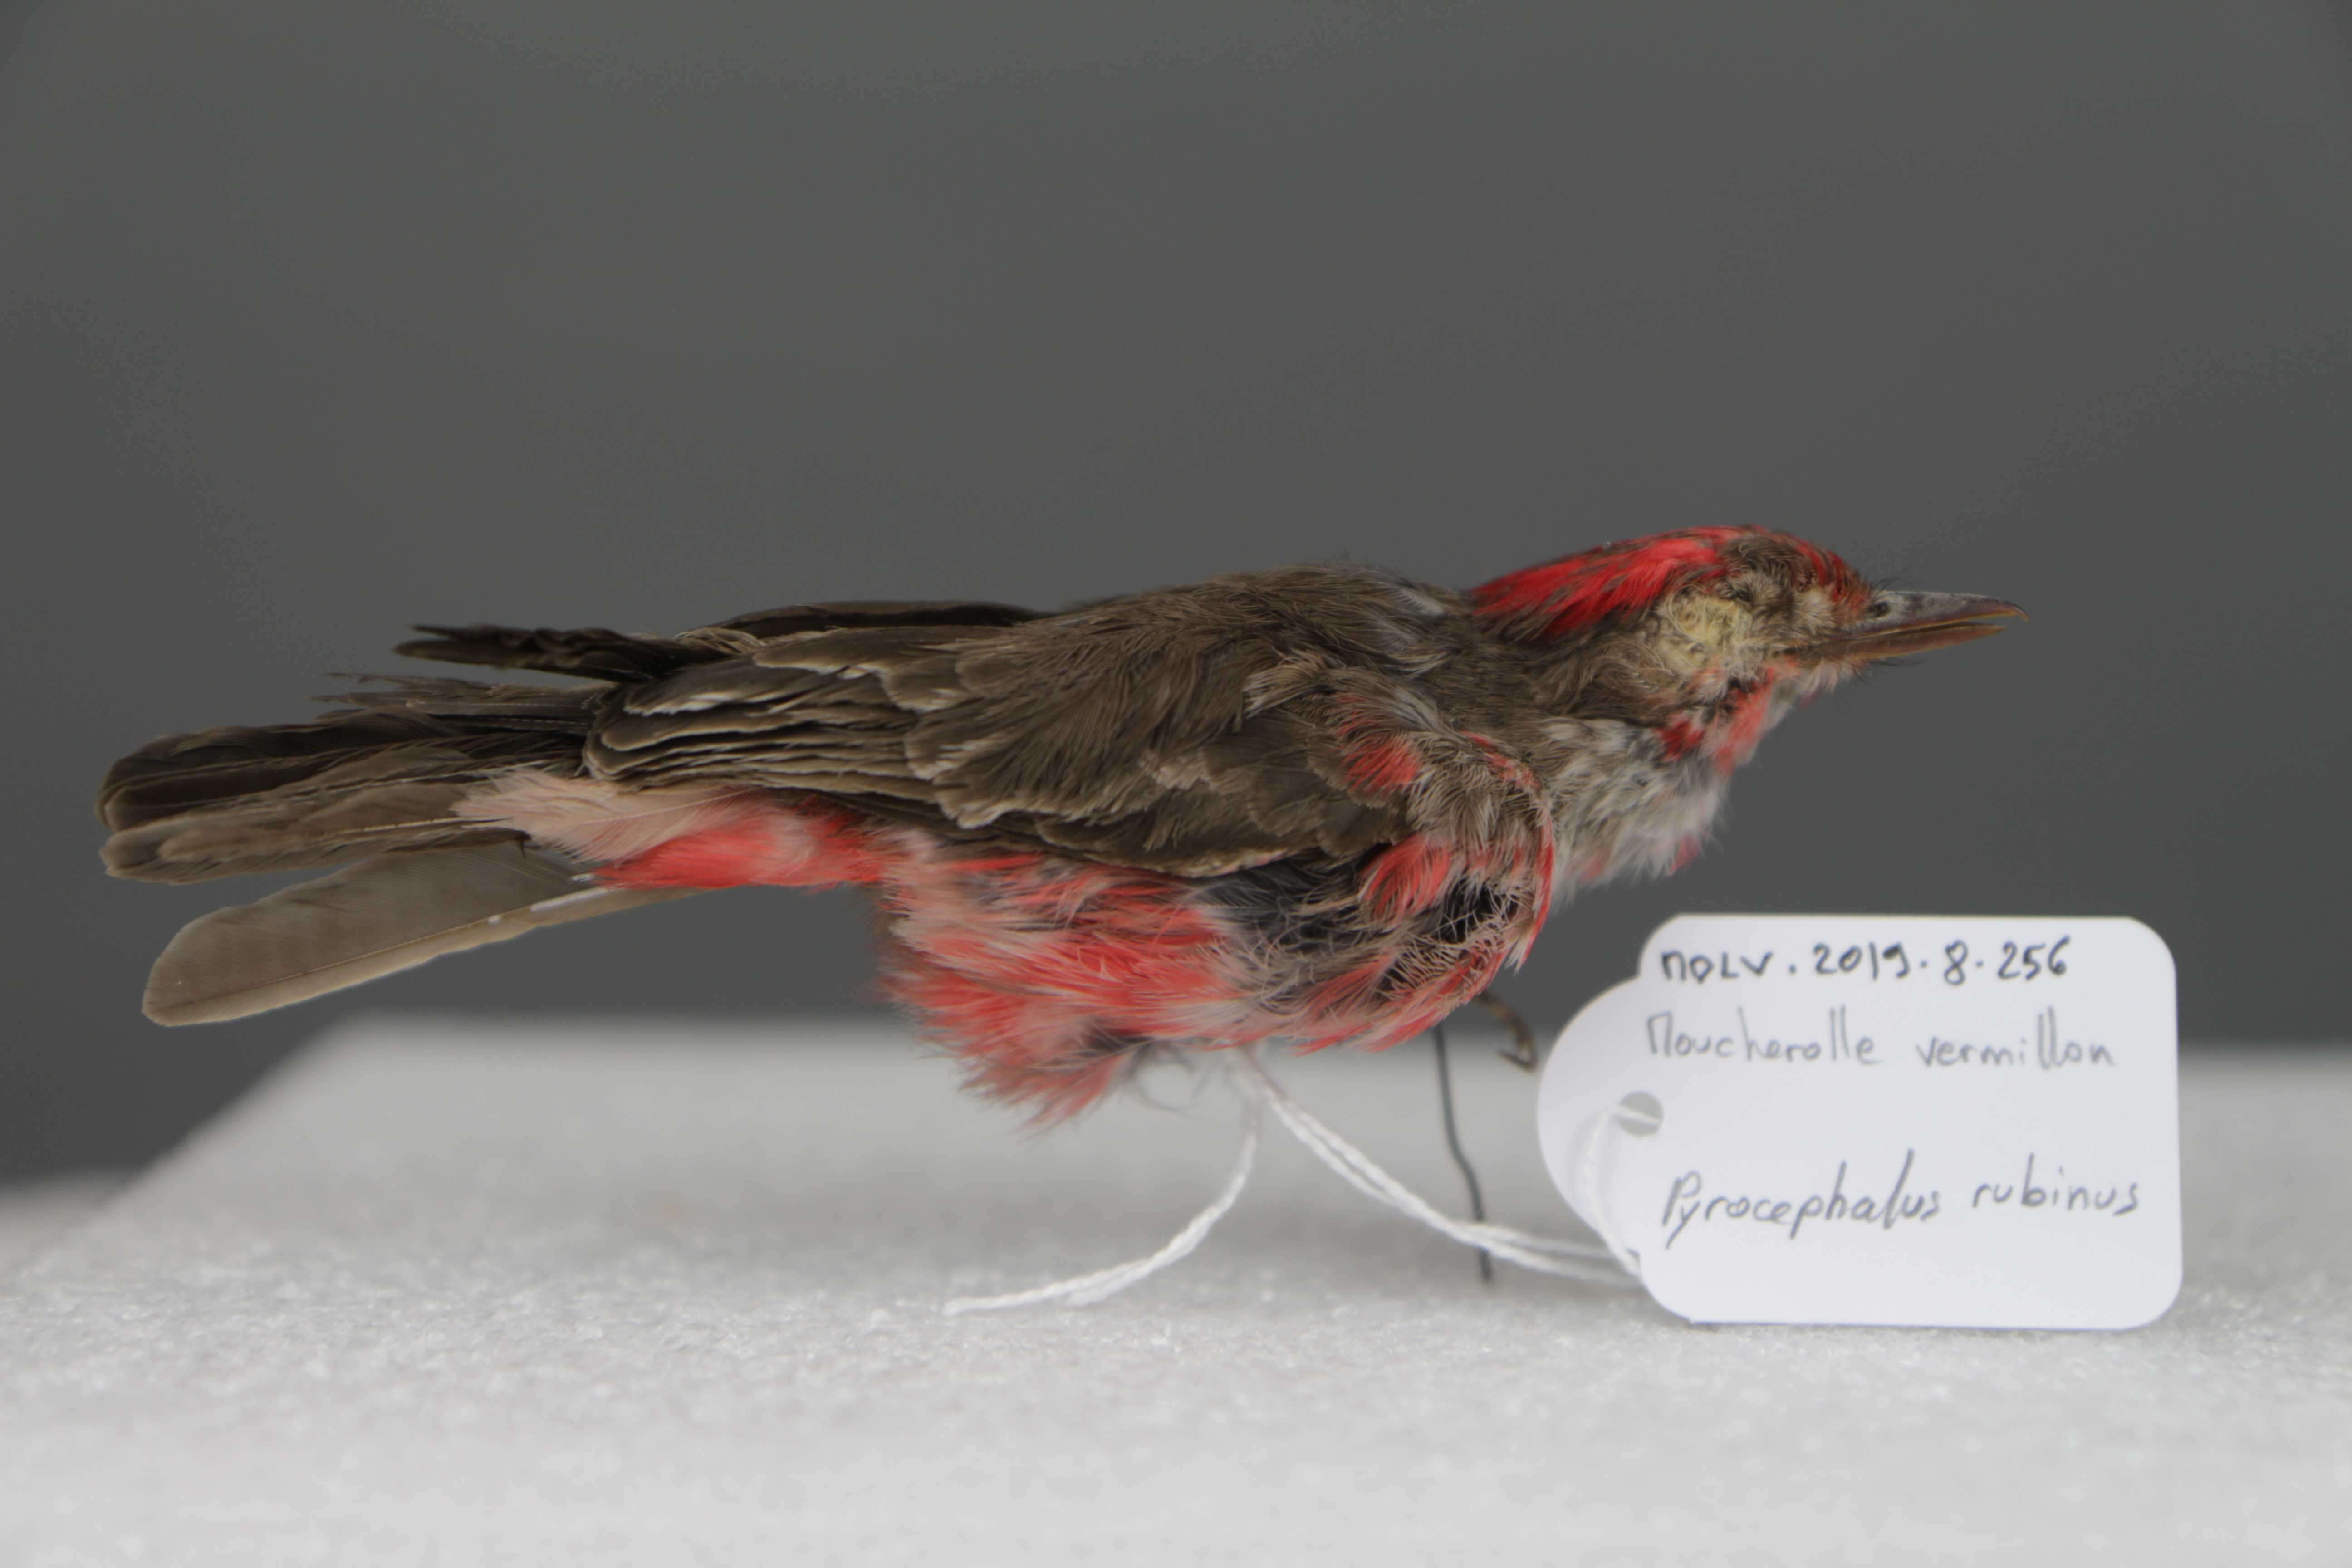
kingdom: Animalia
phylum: Chordata
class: Aves
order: Passeriformes
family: Tyrannidae
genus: Pyrocephalus
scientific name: Pyrocephalus rubinus
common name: Vermilion flycatcher
